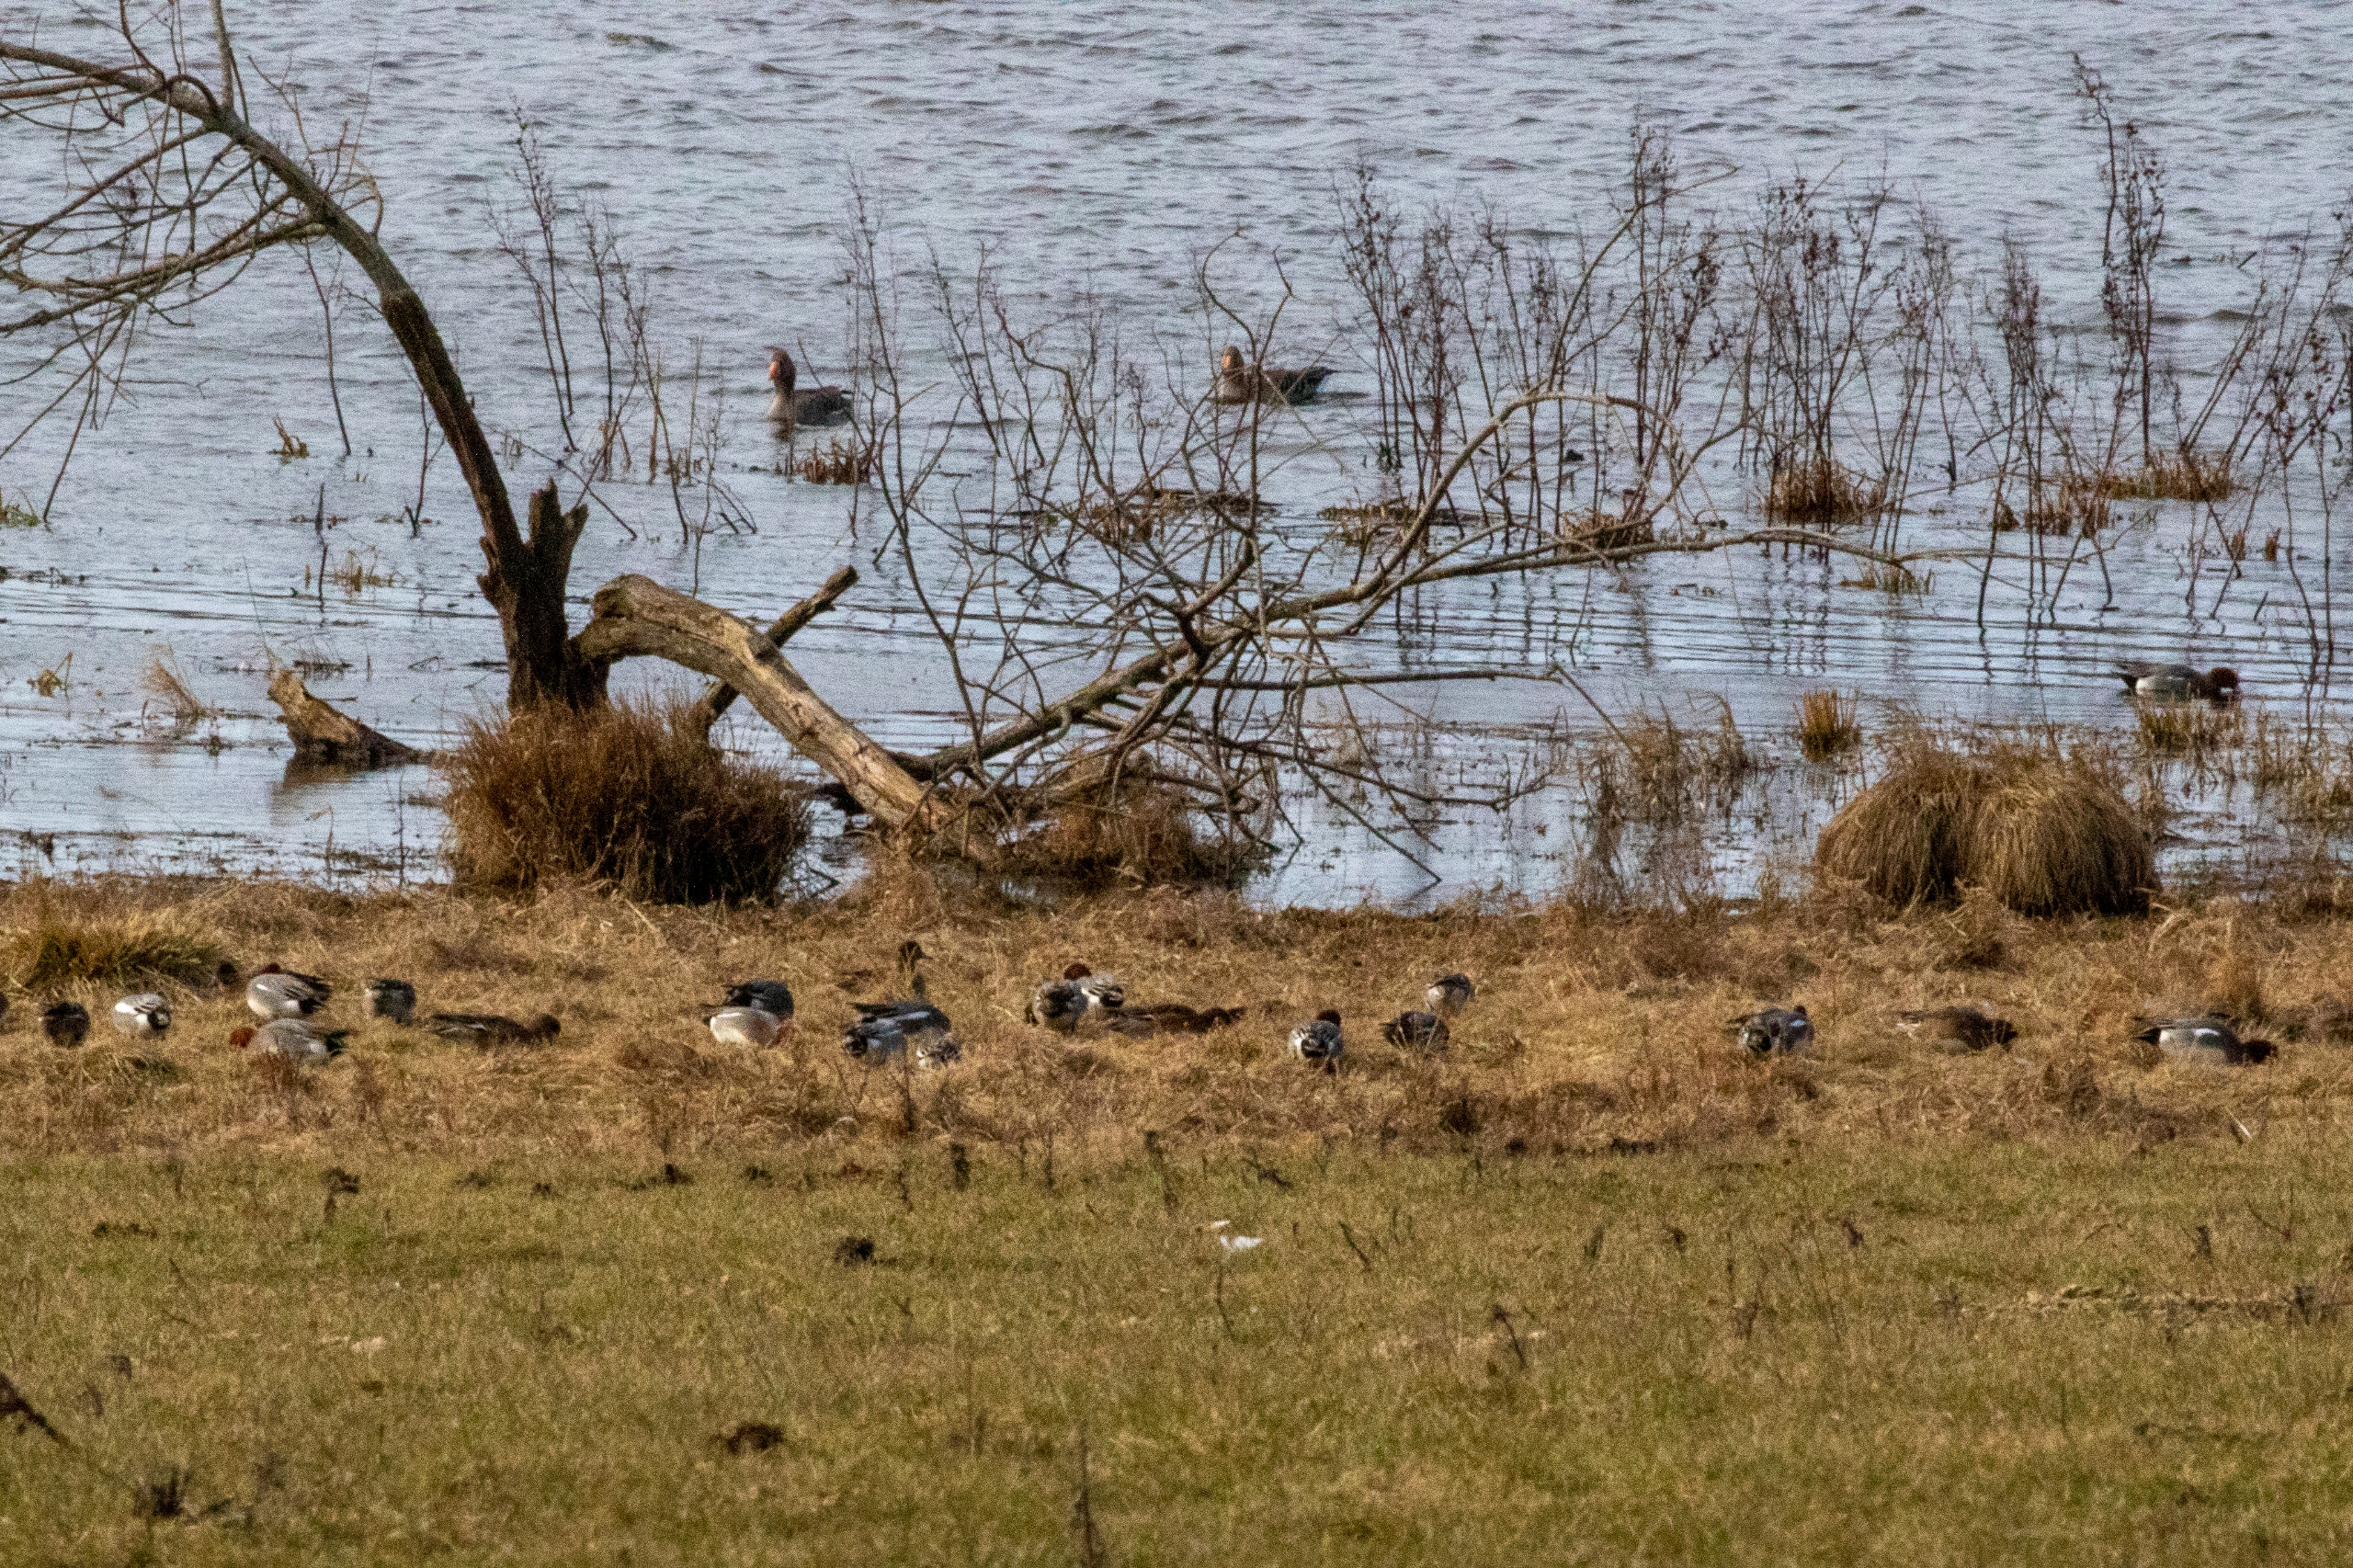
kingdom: Animalia
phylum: Chordata
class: Aves
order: Anseriformes
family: Anatidae
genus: Mareca
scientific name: Mareca penelope
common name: Pibeand
